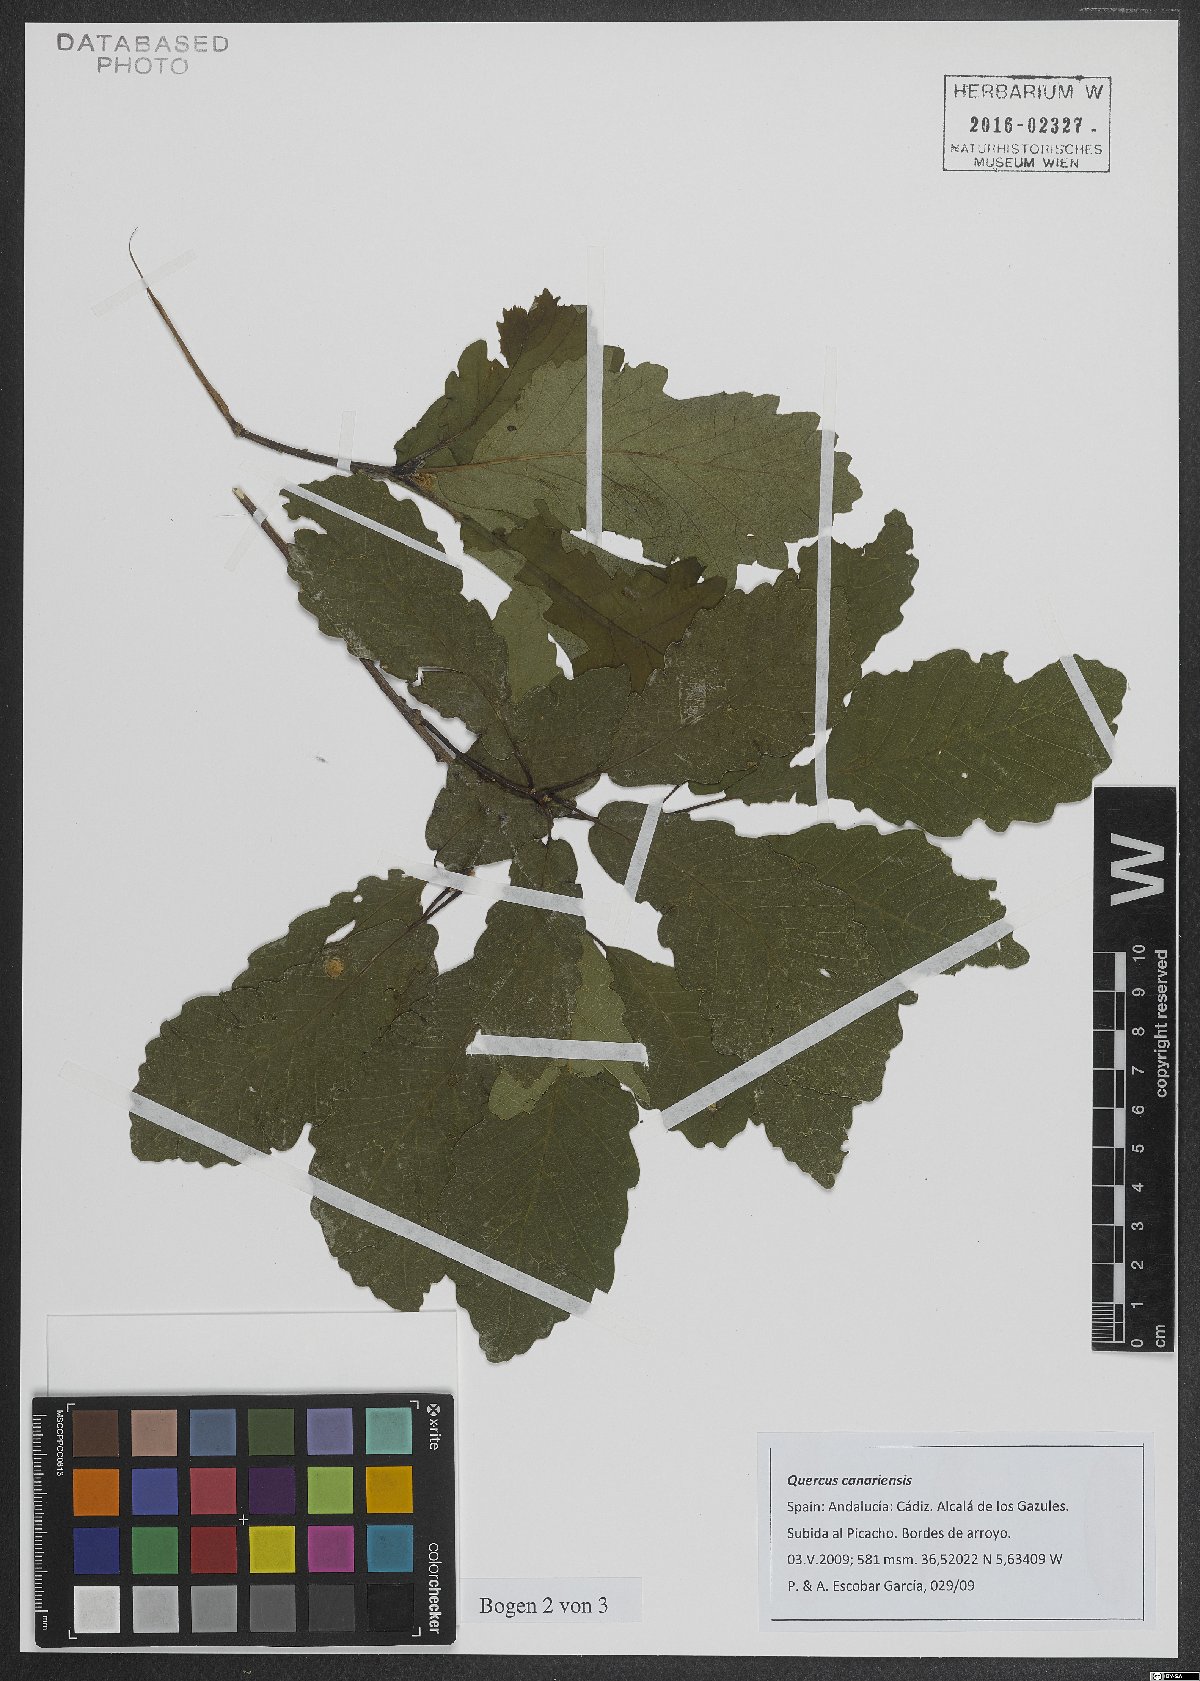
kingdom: Plantae
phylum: Tracheophyta
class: Magnoliopsida
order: Fagales
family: Fagaceae
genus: Quercus
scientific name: Quercus canariensis
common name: Algerian oak
